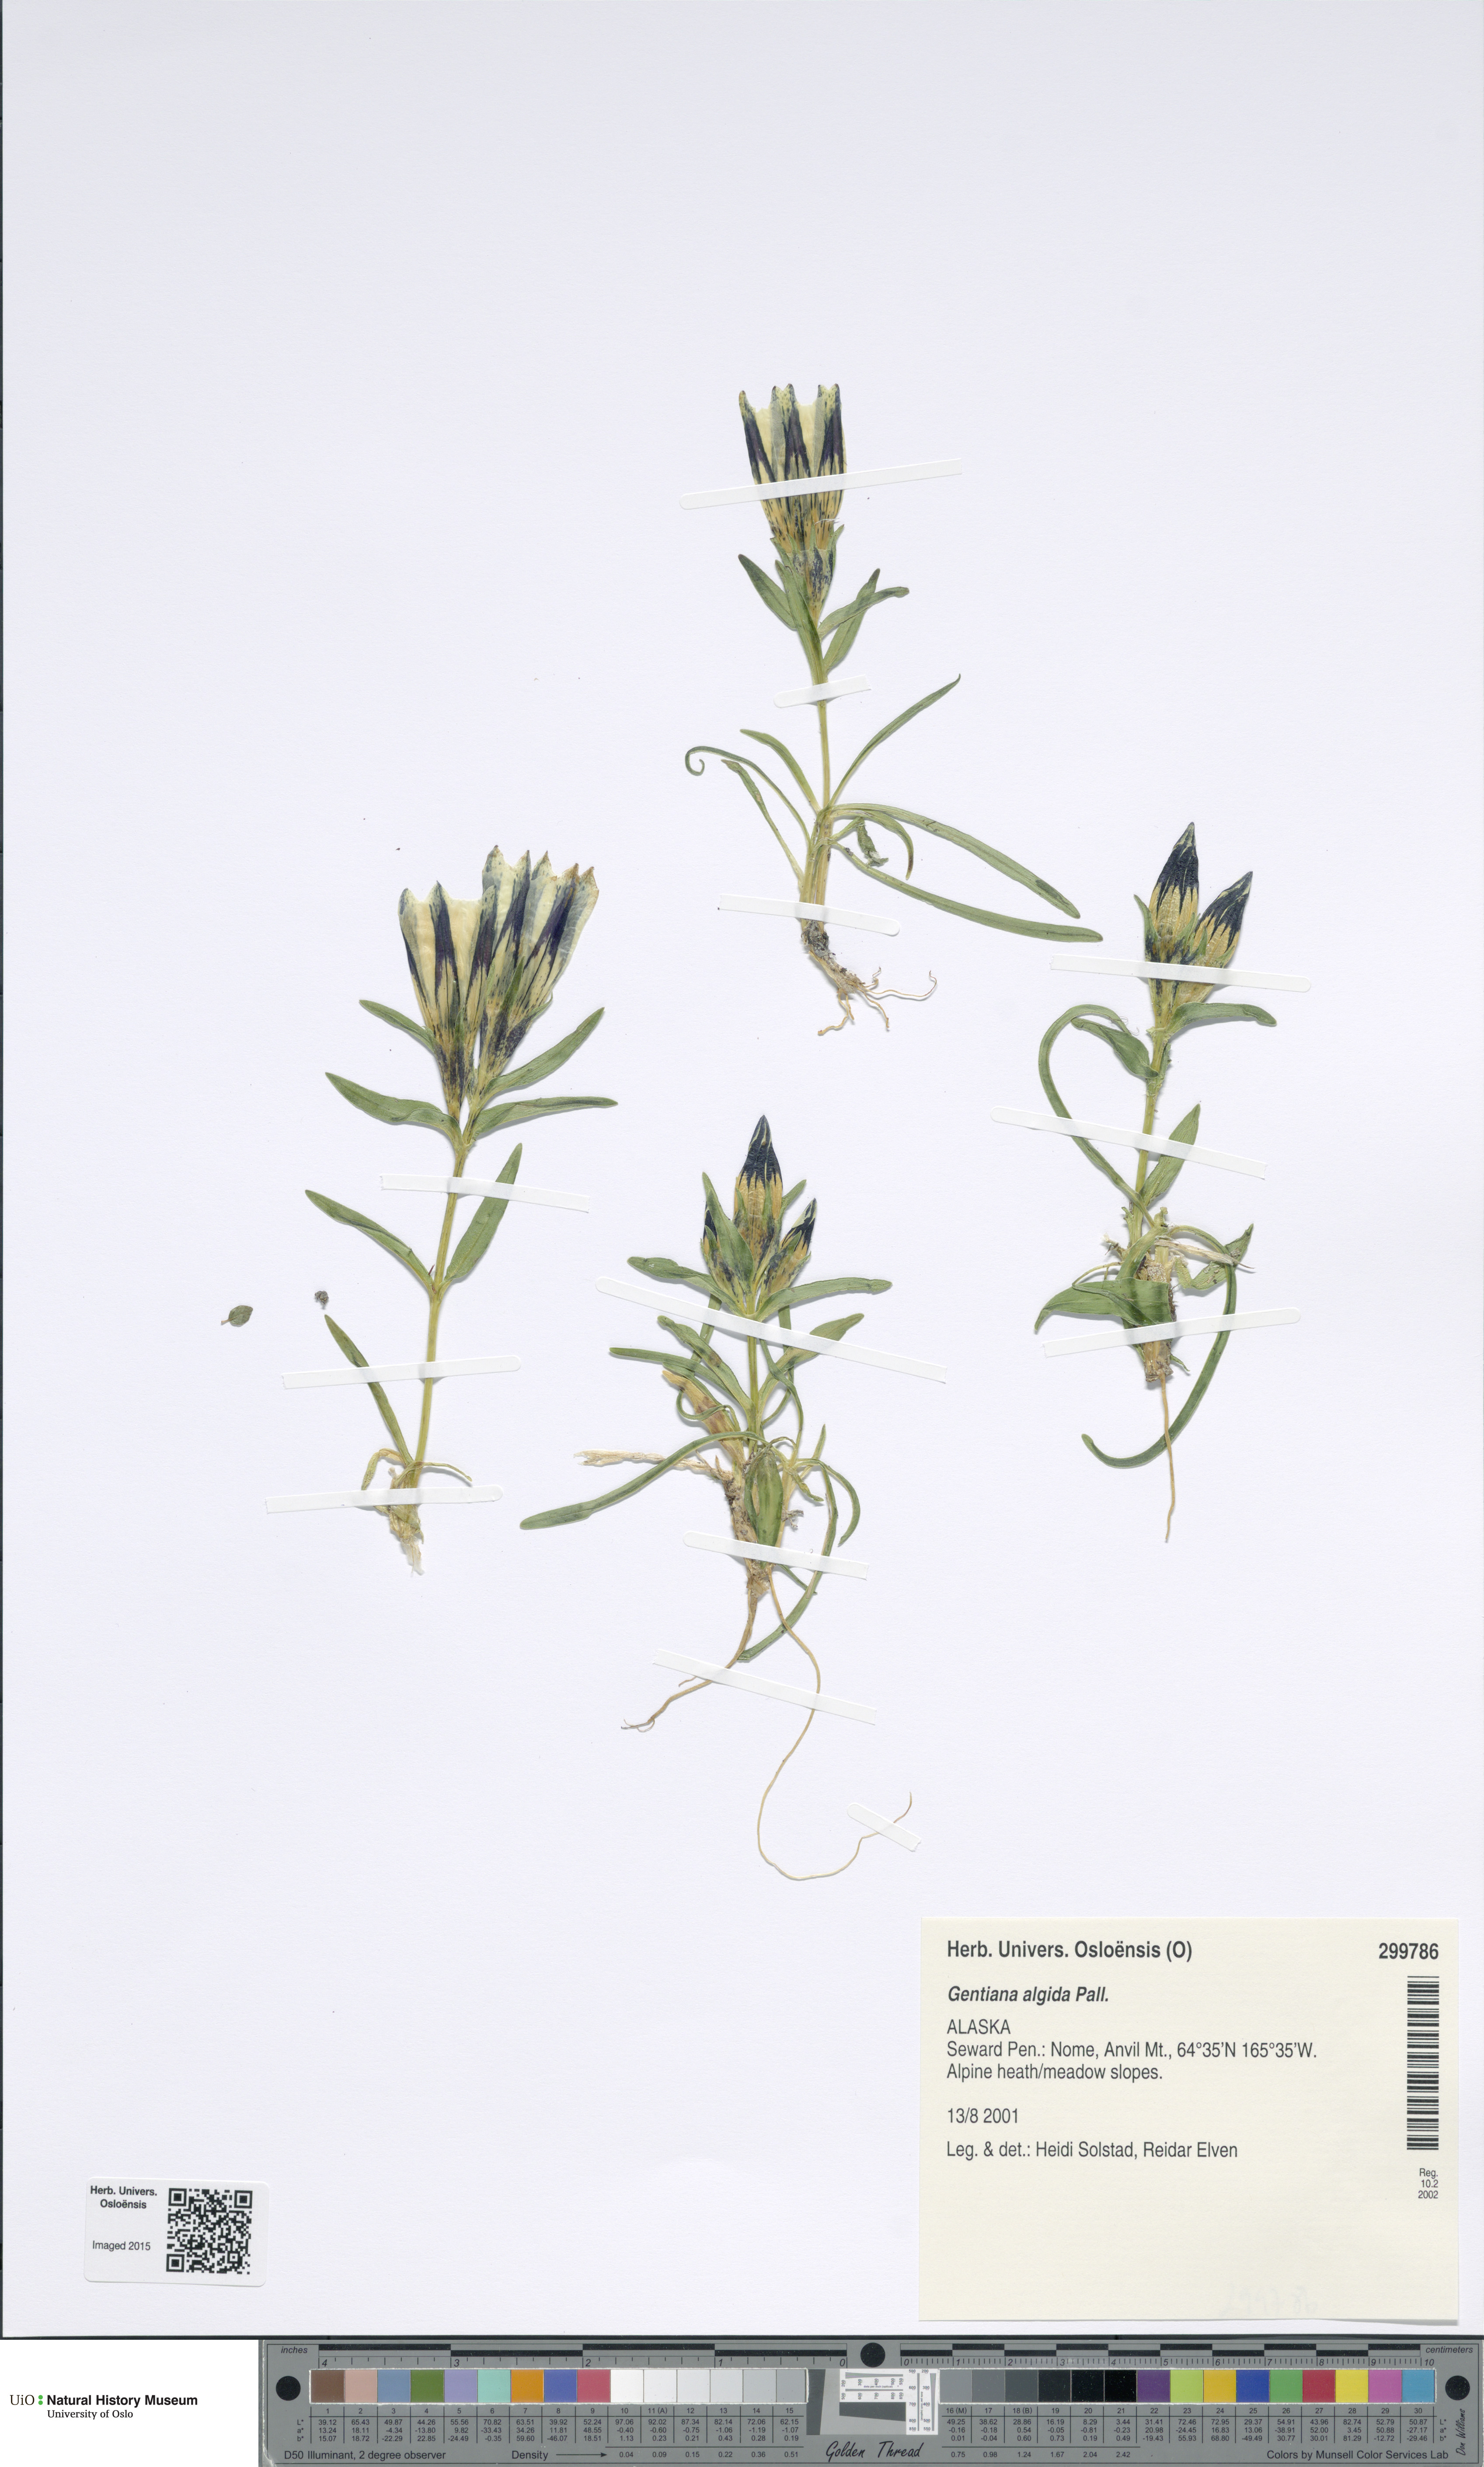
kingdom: Plantae
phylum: Tracheophyta
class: Magnoliopsida
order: Gentianales
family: Gentianaceae
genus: Gentiana
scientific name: Gentiana algida
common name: Arctic gentian
